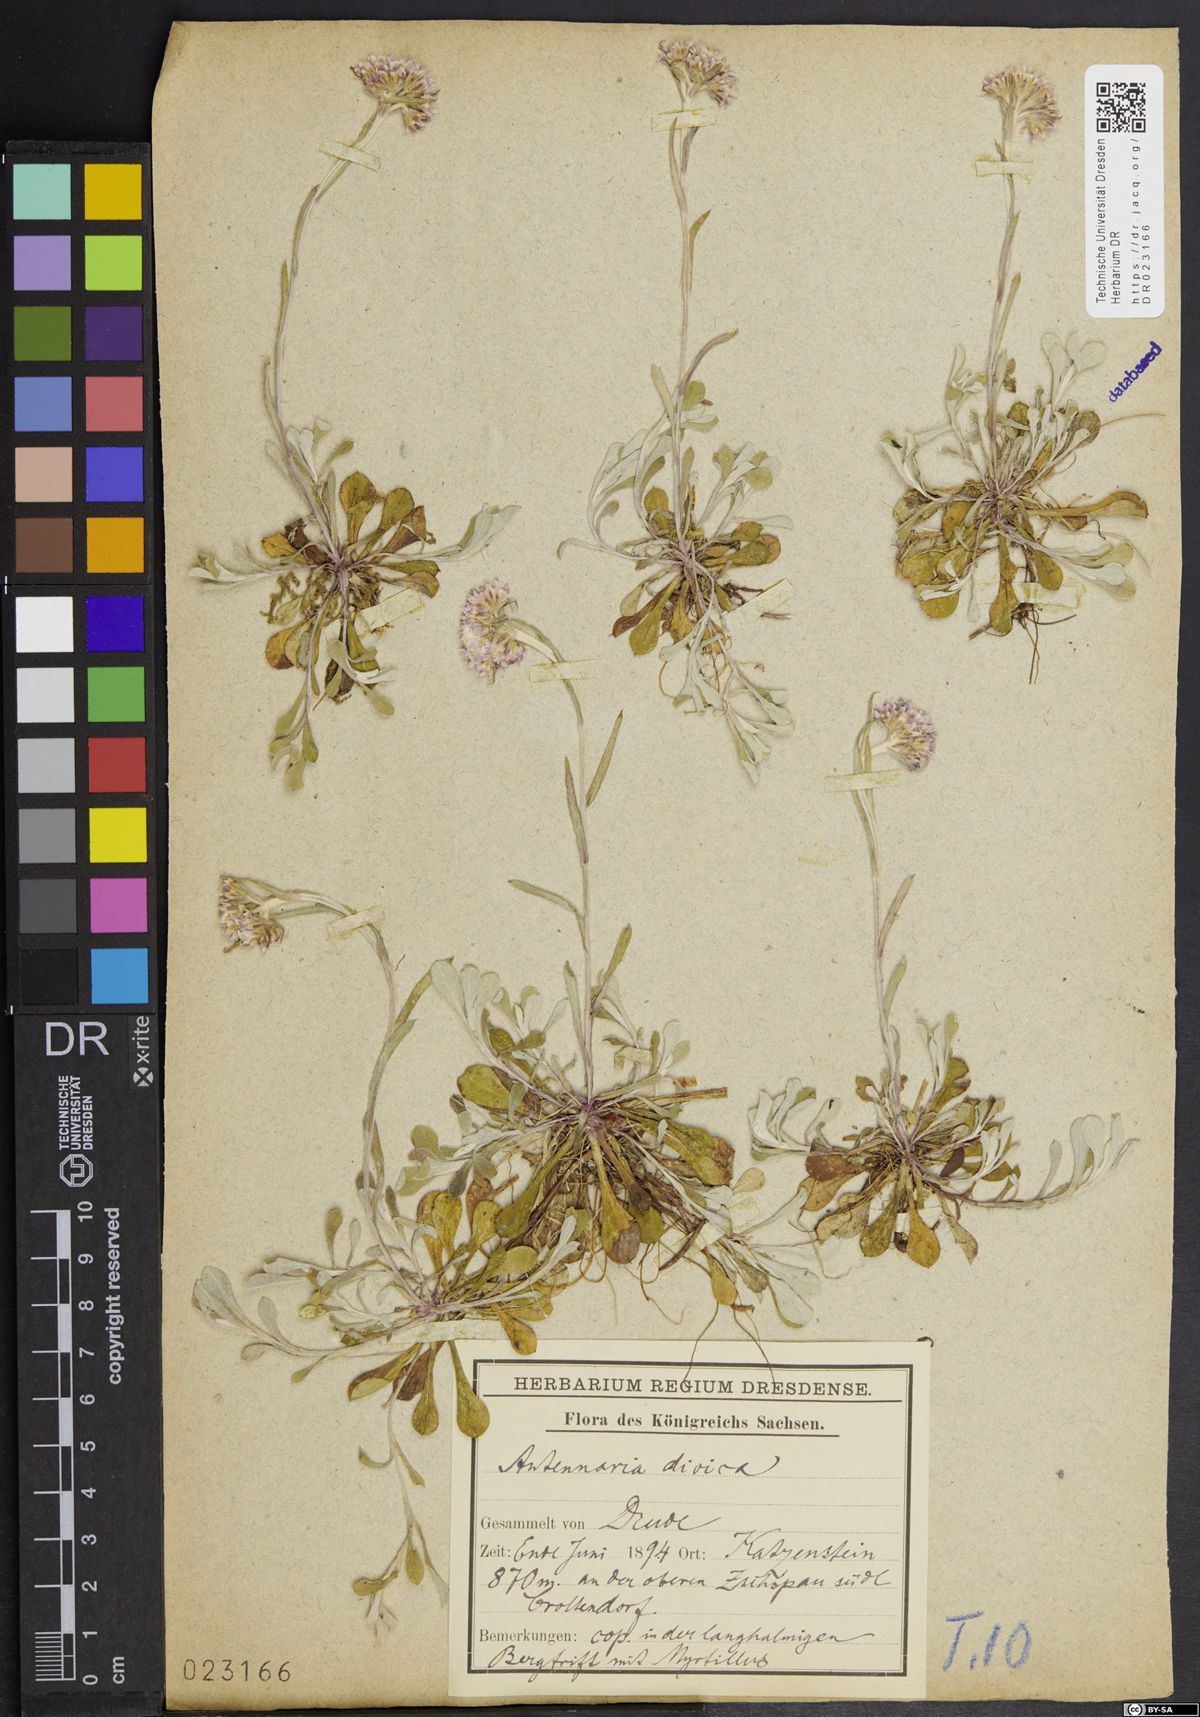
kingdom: Plantae
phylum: Tracheophyta
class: Magnoliopsida
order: Asterales
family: Asteraceae
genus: Antennaria
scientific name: Antennaria dioica
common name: Mountain everlasting
